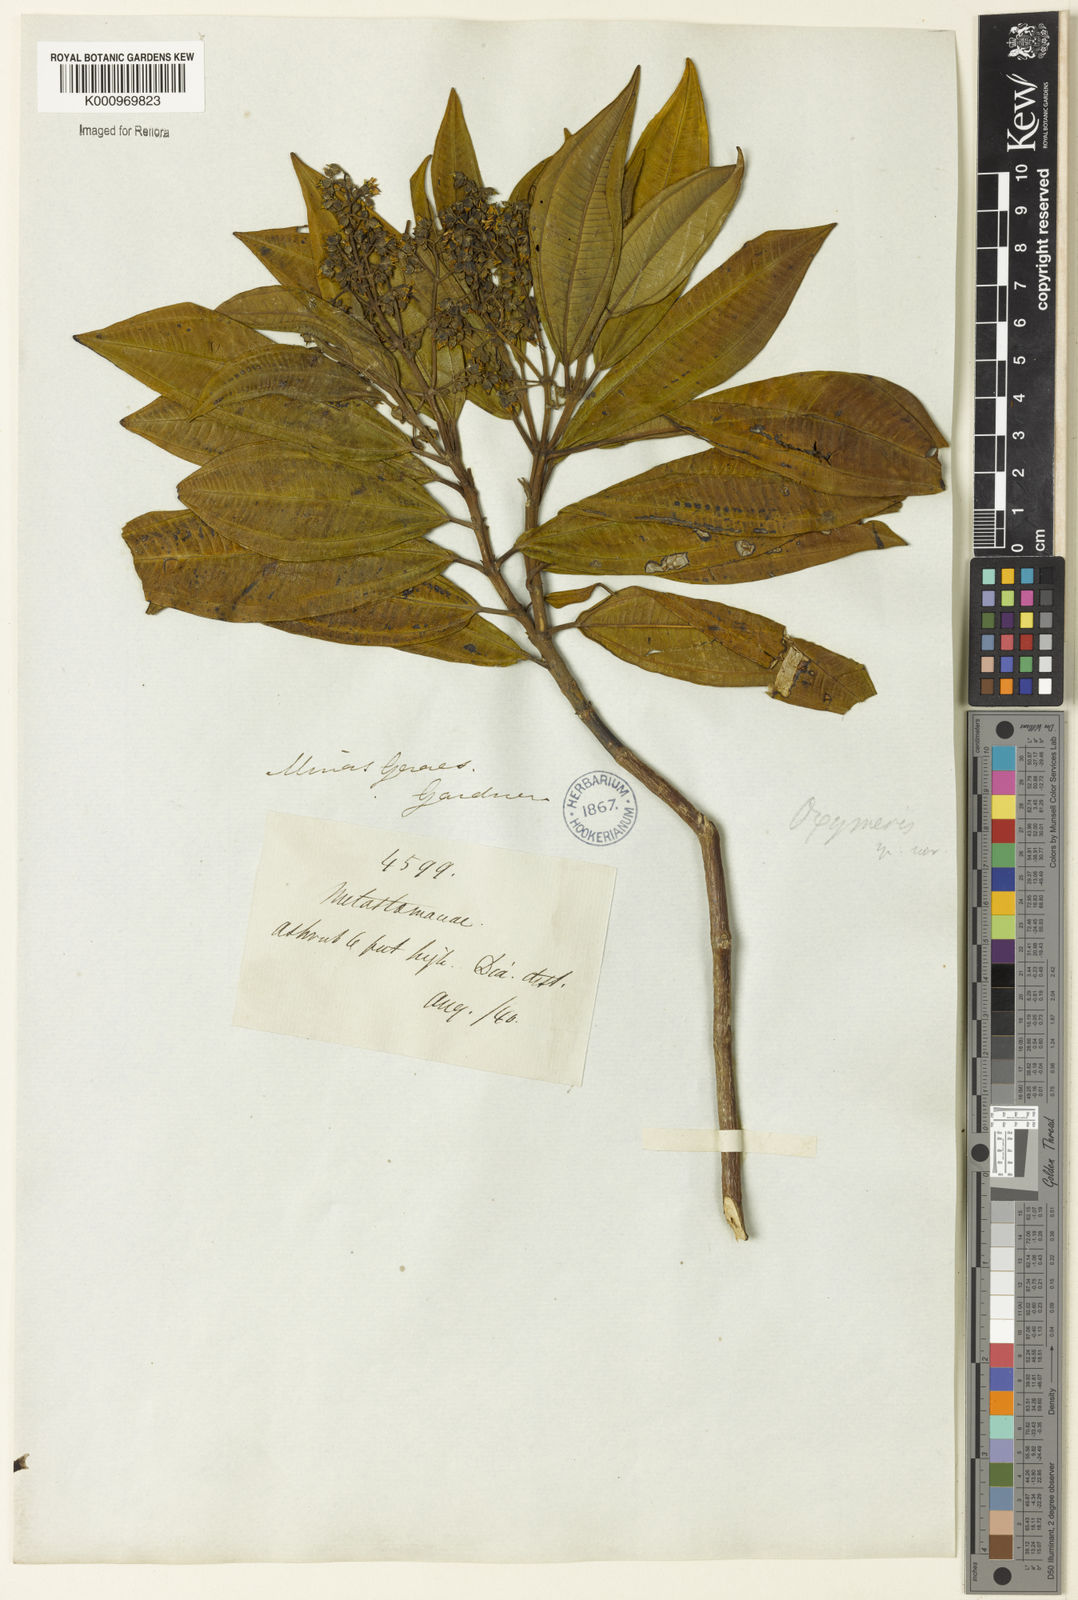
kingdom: Plantae
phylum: Tracheophyta
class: Magnoliopsida
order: Myrtales
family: Melastomataceae
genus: Miconia
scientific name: Miconia
